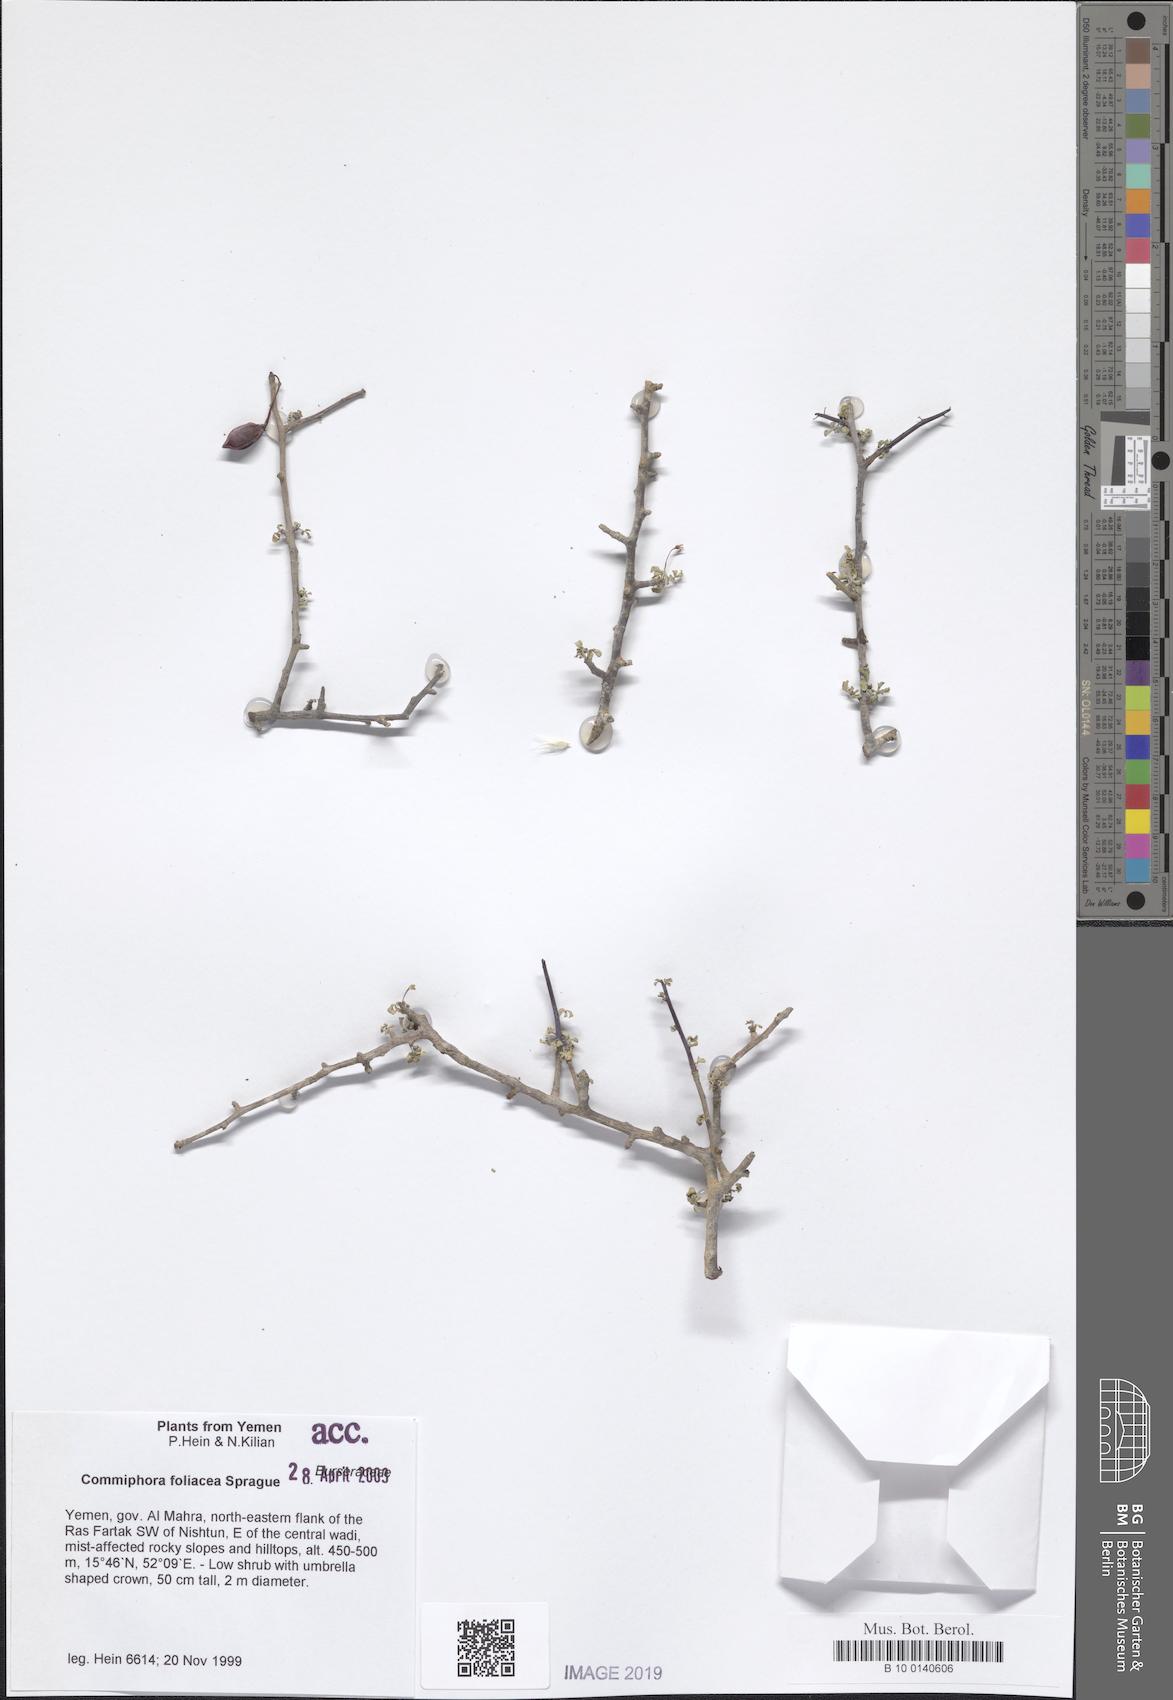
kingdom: Plantae
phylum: Tracheophyta
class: Magnoliopsida
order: Sapindales
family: Burseraceae
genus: Commiphora
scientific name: Commiphora foliacea
